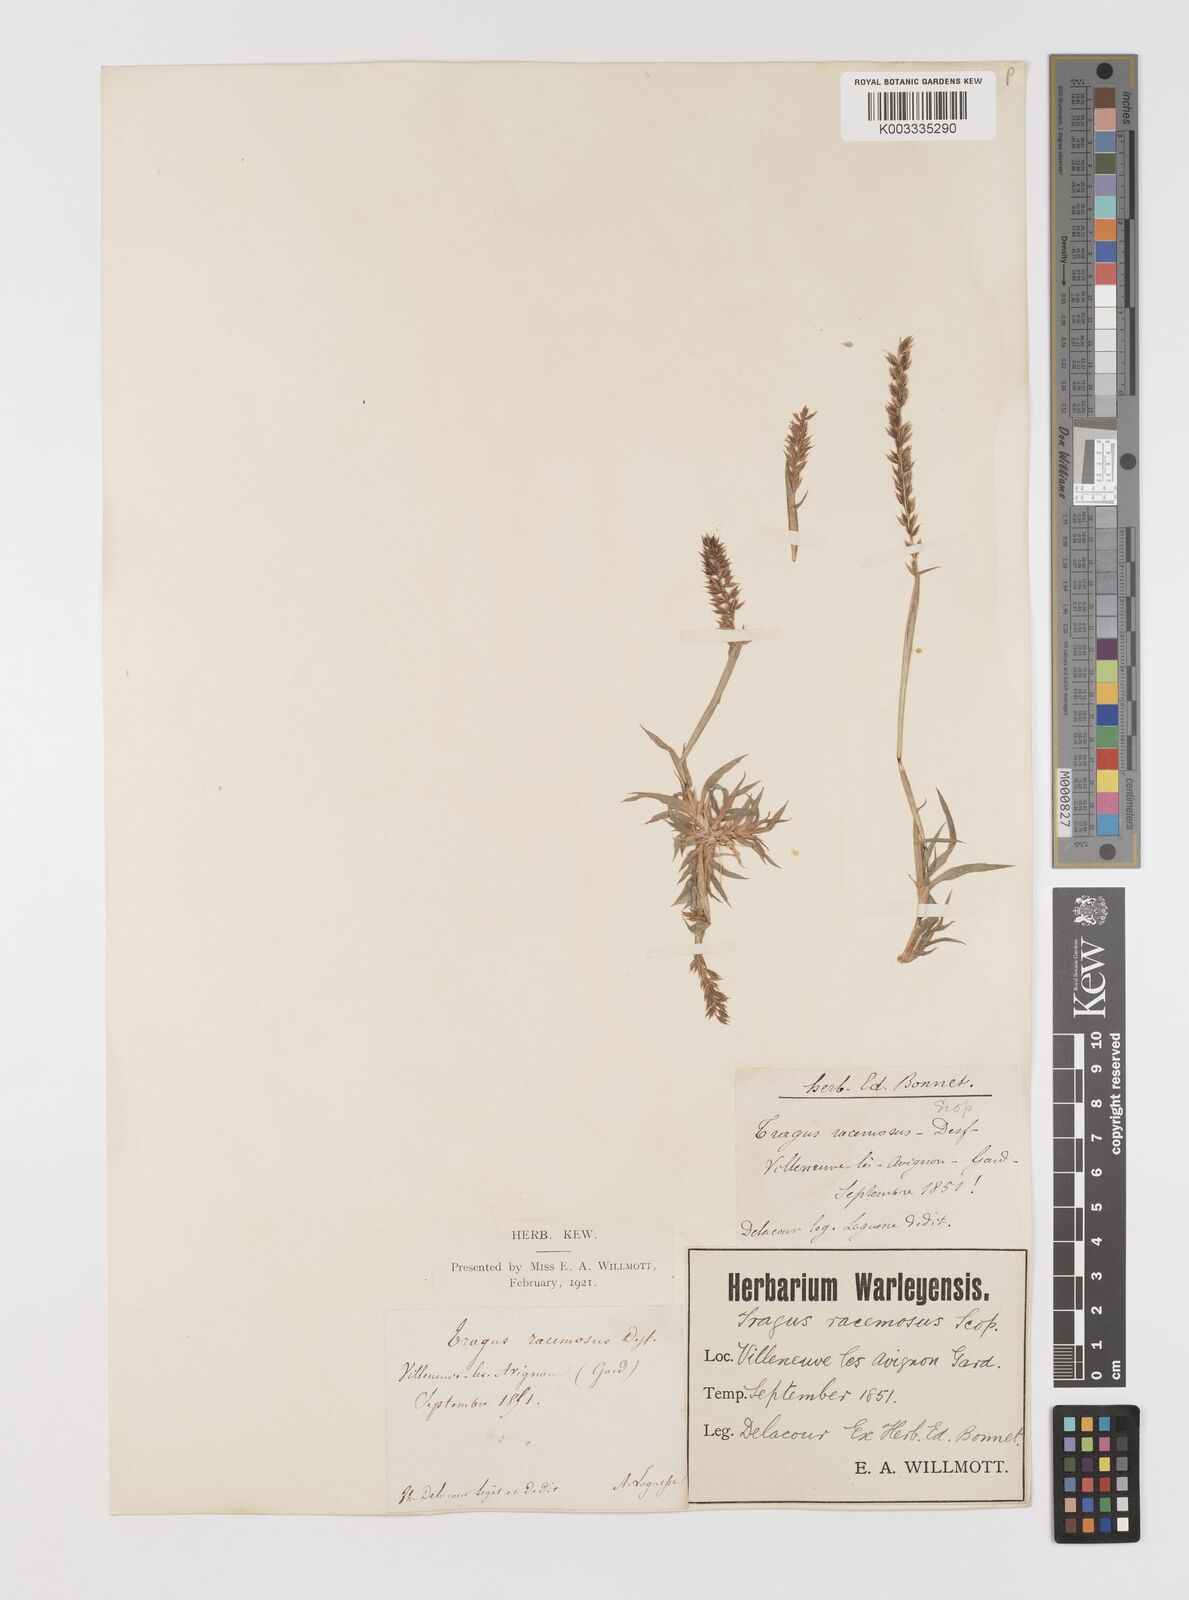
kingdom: Plantae
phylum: Tracheophyta
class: Liliopsida
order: Poales
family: Poaceae
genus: Tragus
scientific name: Tragus racemosus
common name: European bur-grass
